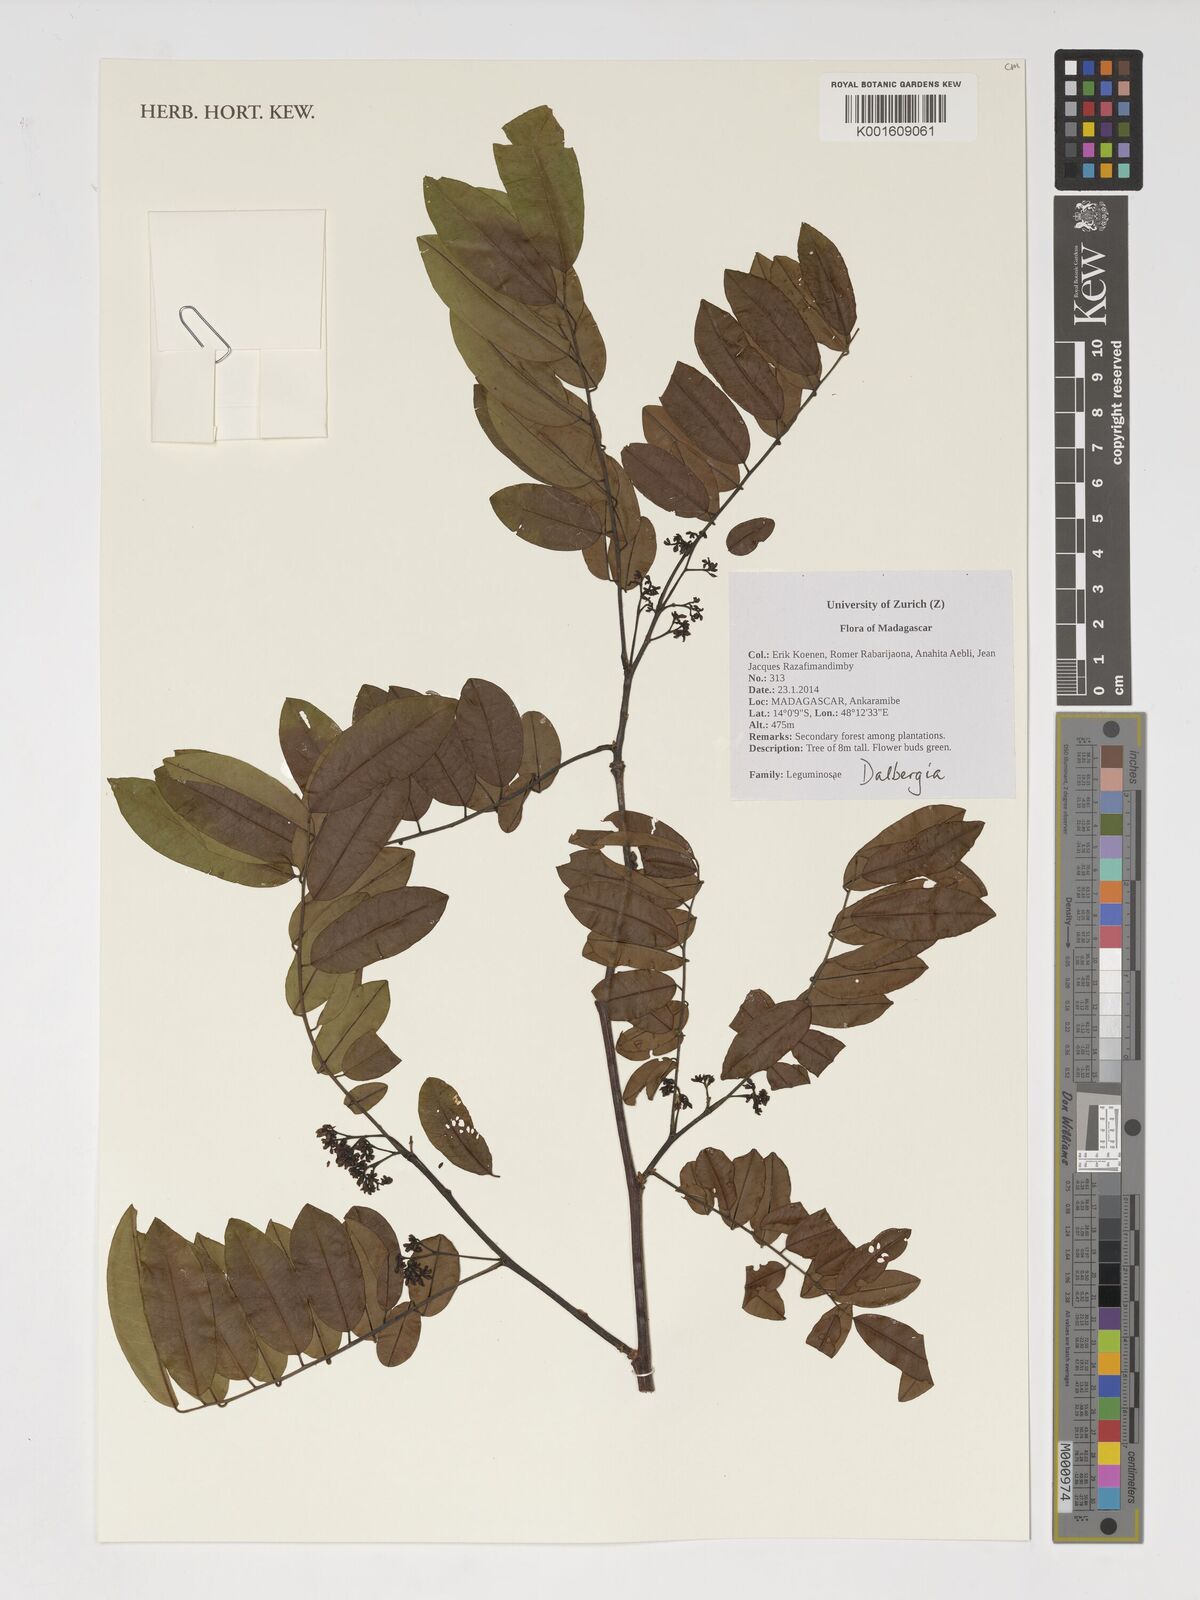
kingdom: Plantae
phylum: Tracheophyta
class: Magnoliopsida
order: Fabales
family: Fabaceae
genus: Dalbergia
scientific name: Dalbergia
